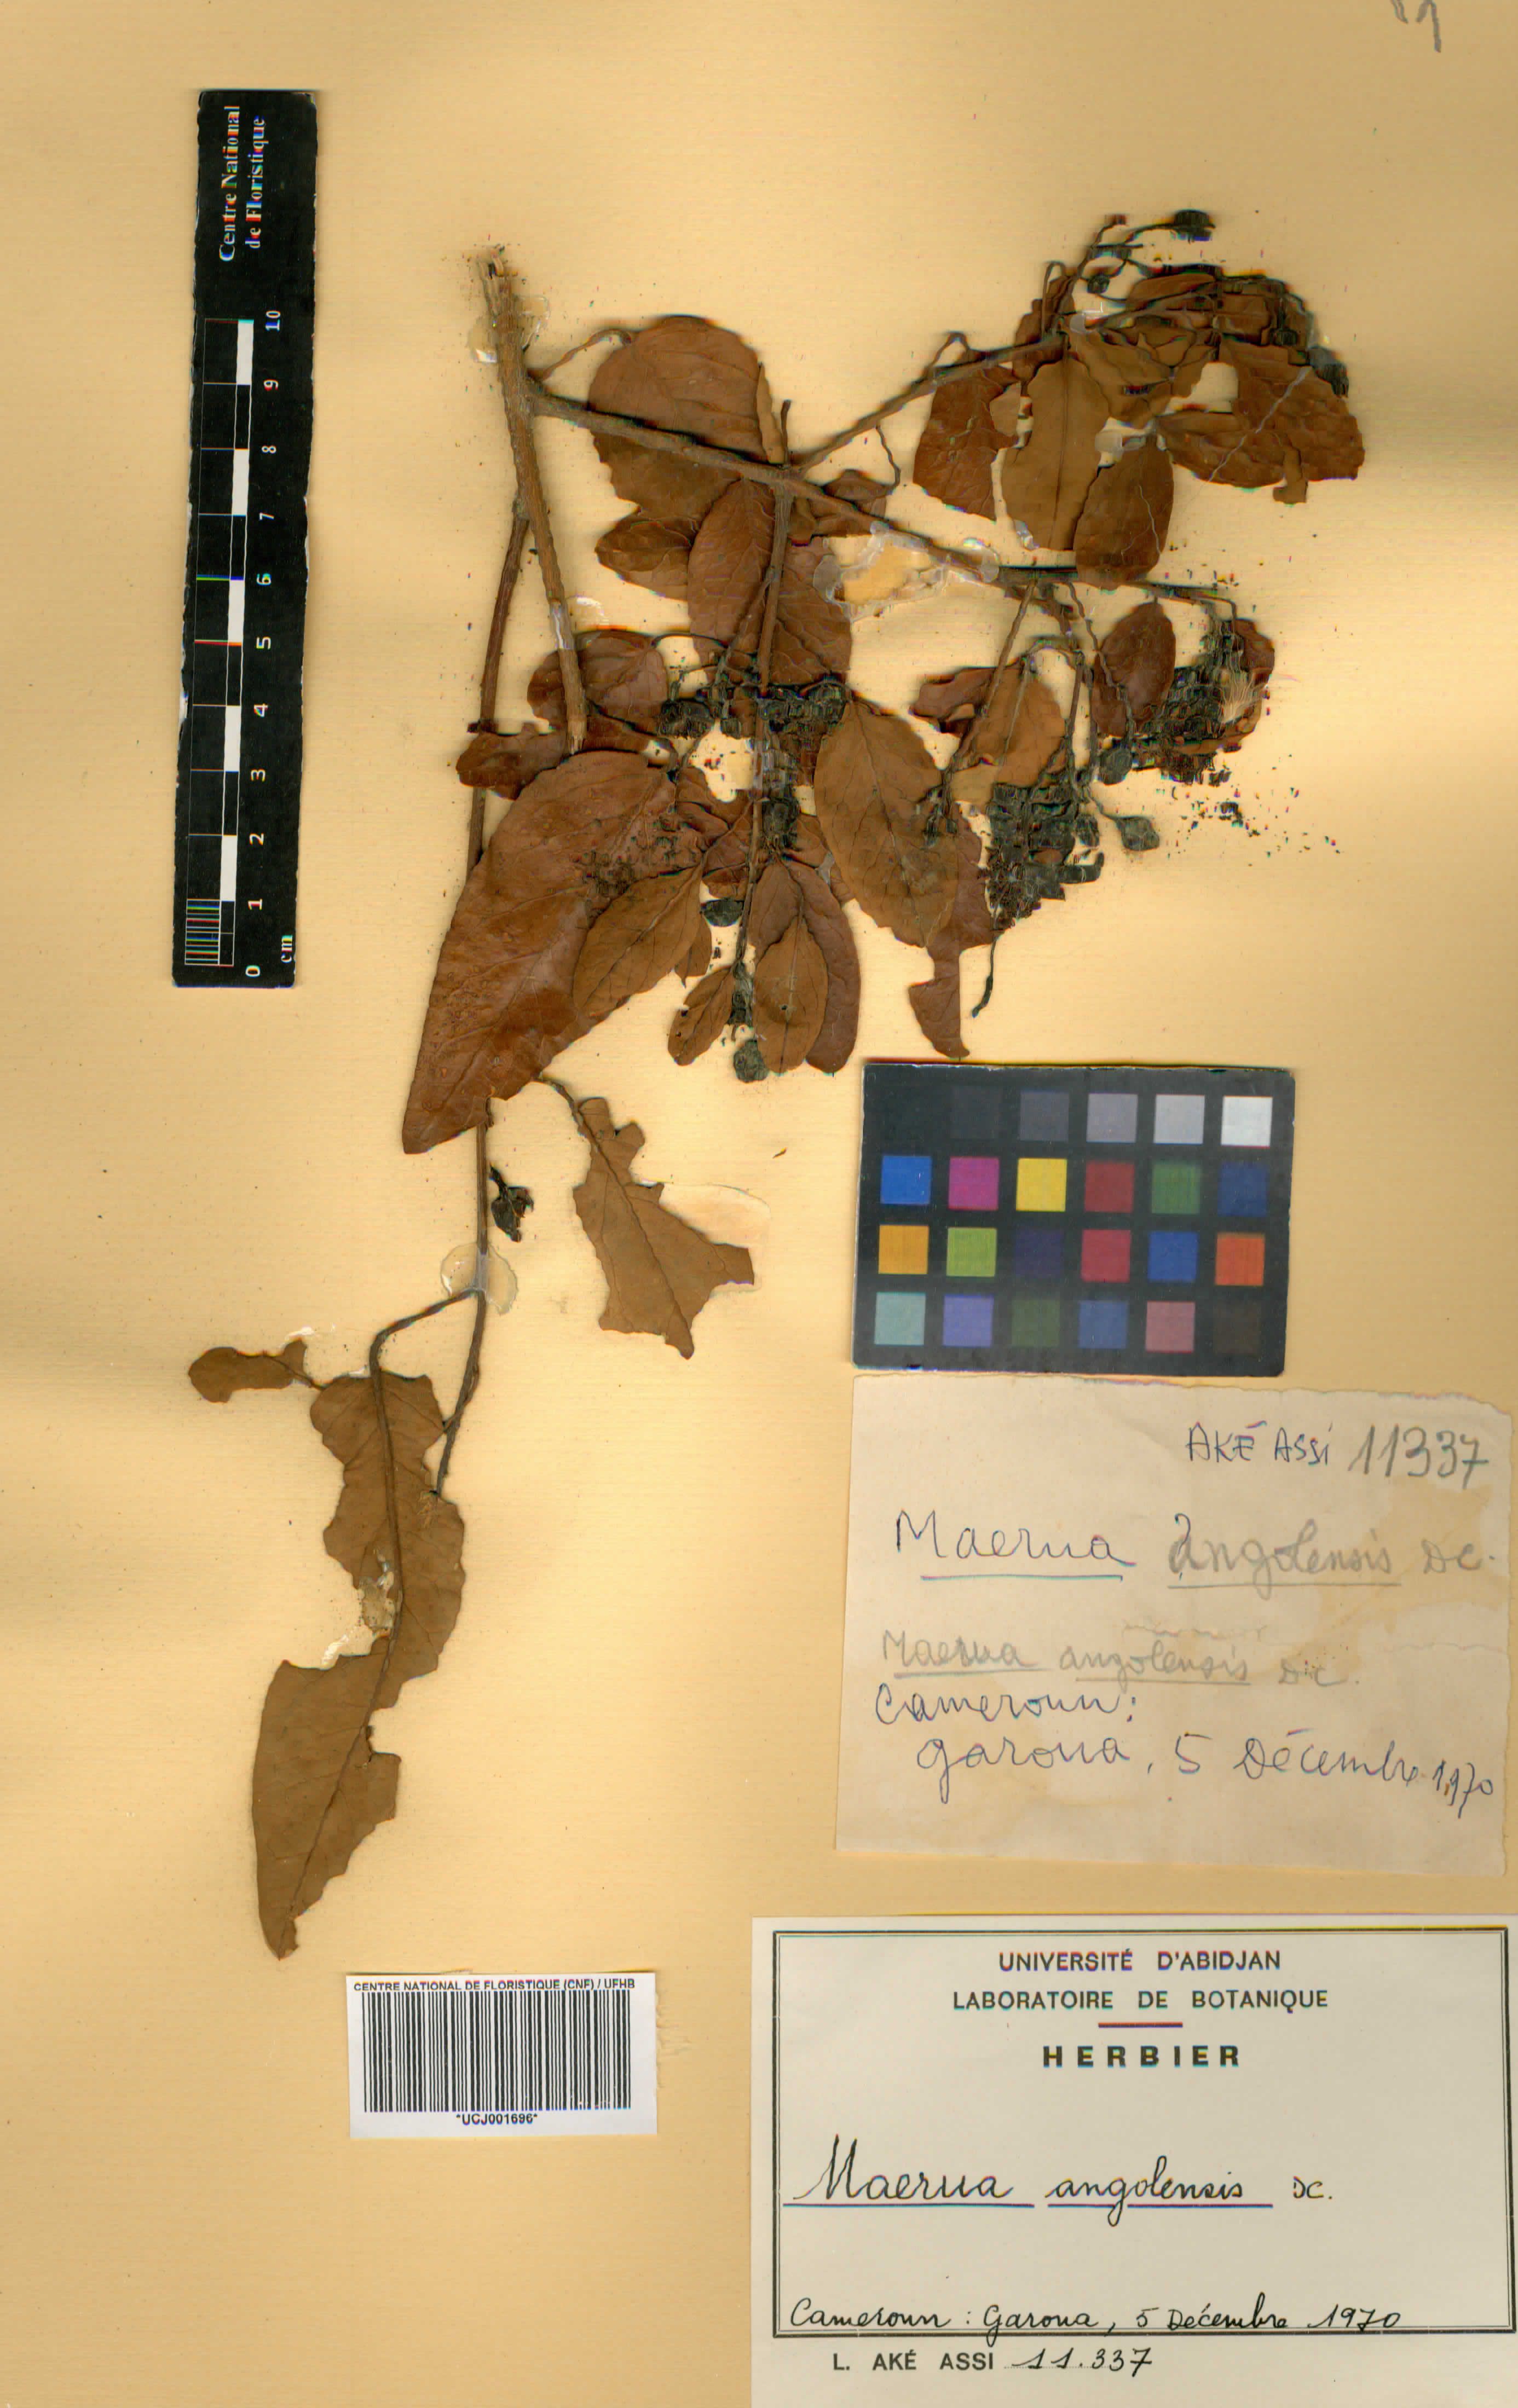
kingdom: Plantae
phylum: Tracheophyta
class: Magnoliopsida
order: Brassicales
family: Capparaceae
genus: Maerua
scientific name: Maerua angolensis
